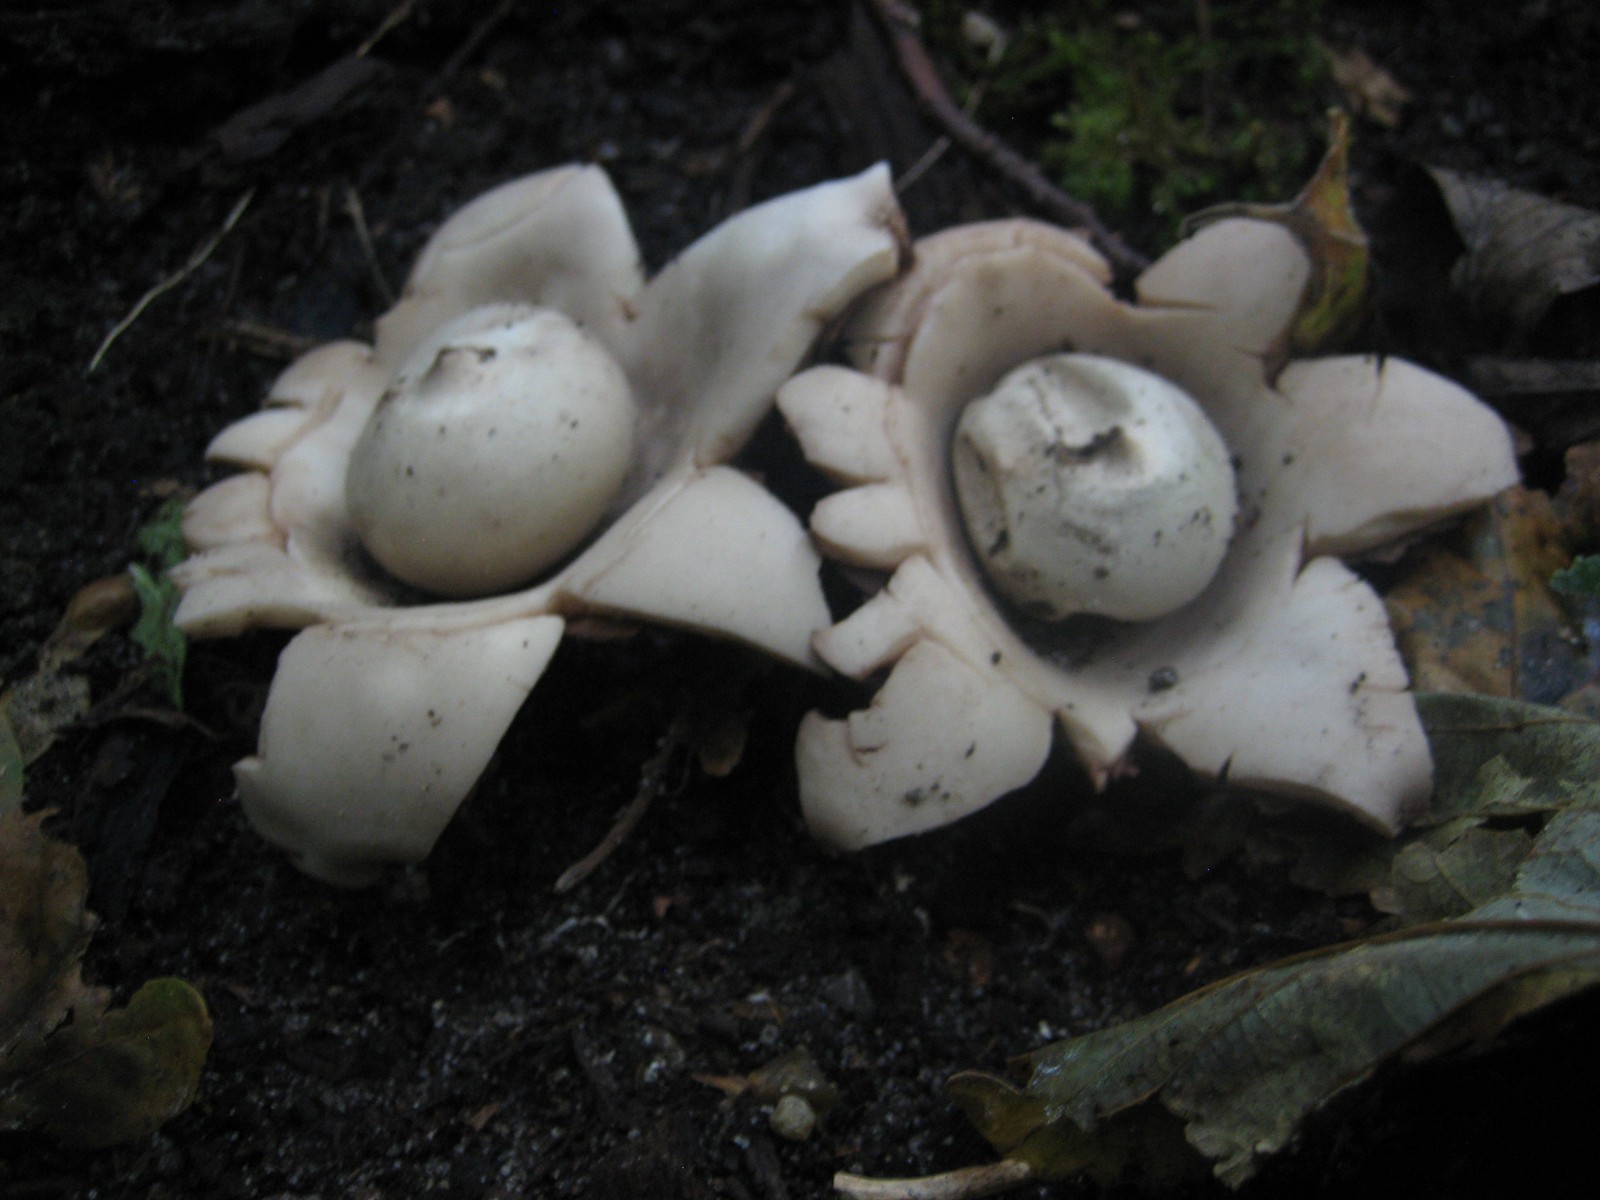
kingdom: Fungi
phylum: Basidiomycota
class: Agaricomycetes
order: Geastrales
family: Geastraceae
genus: Geastrum
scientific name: Geastrum michelianum
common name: kødet stjernebold
